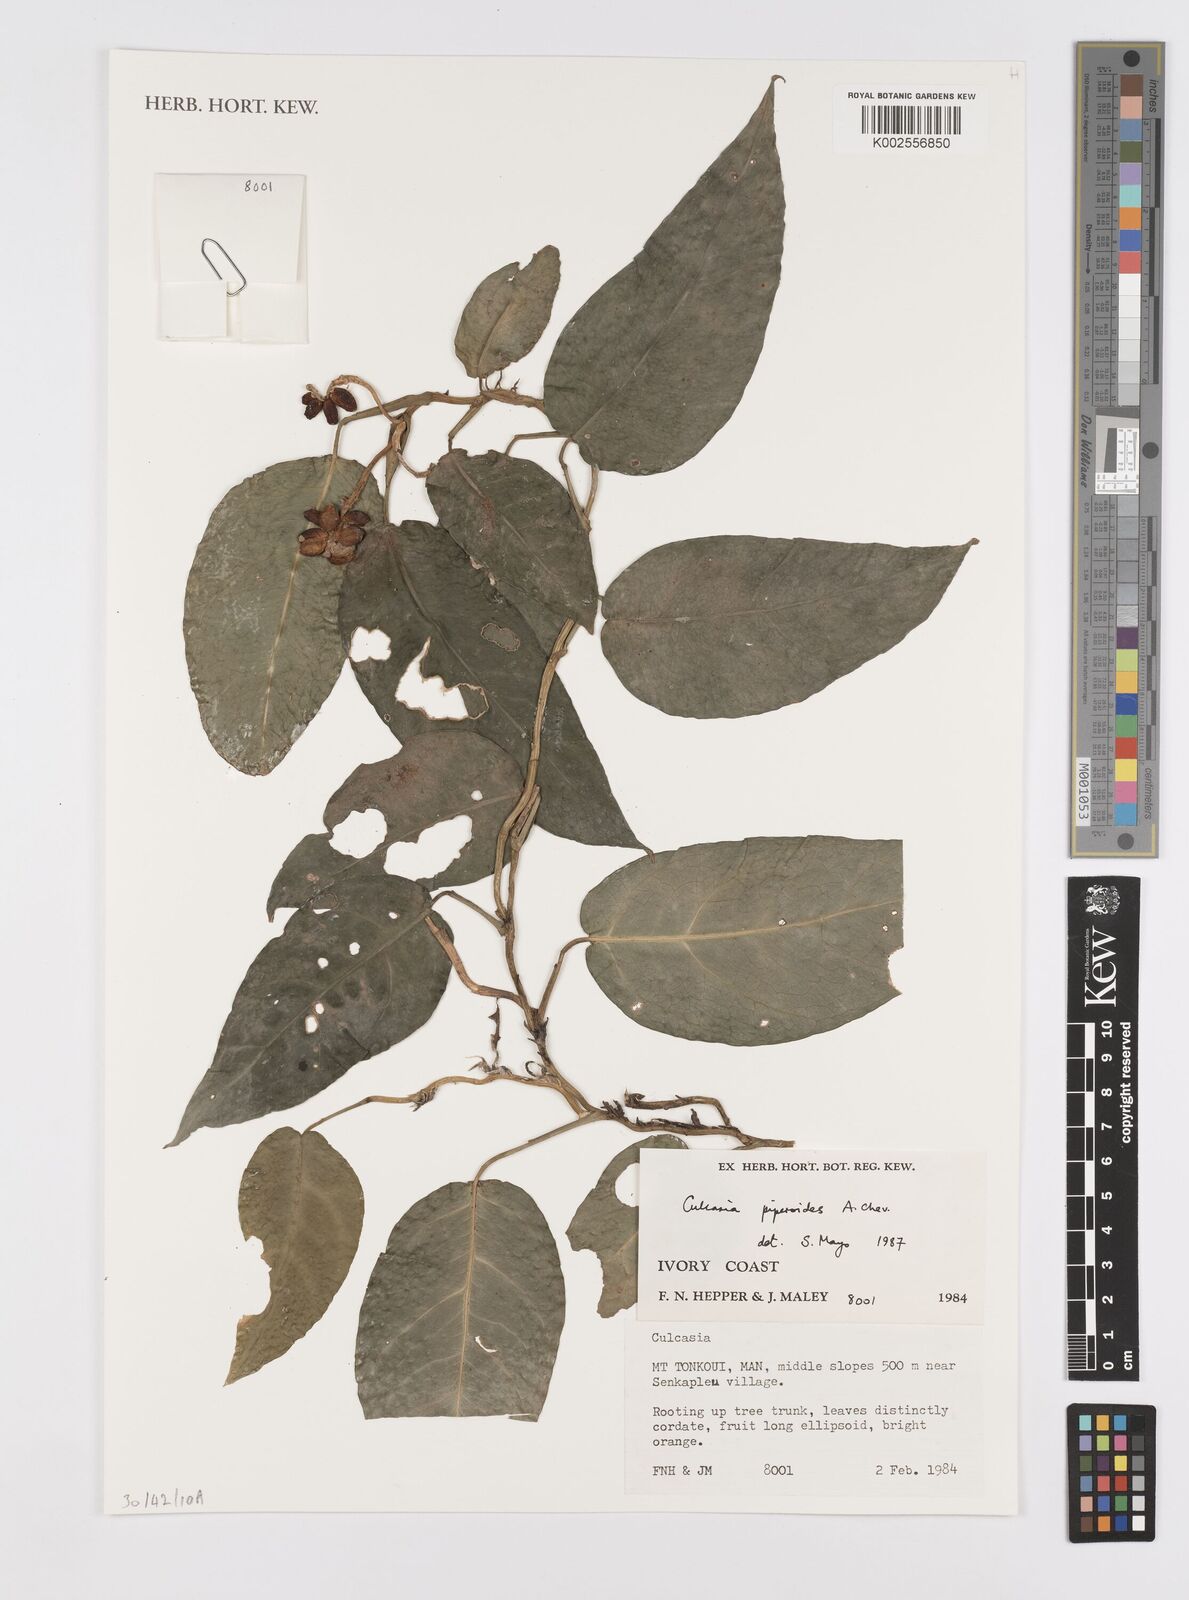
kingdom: Plantae
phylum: Tracheophyta
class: Liliopsida
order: Alismatales
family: Araceae
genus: Culcasia
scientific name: Culcasia parviflora
